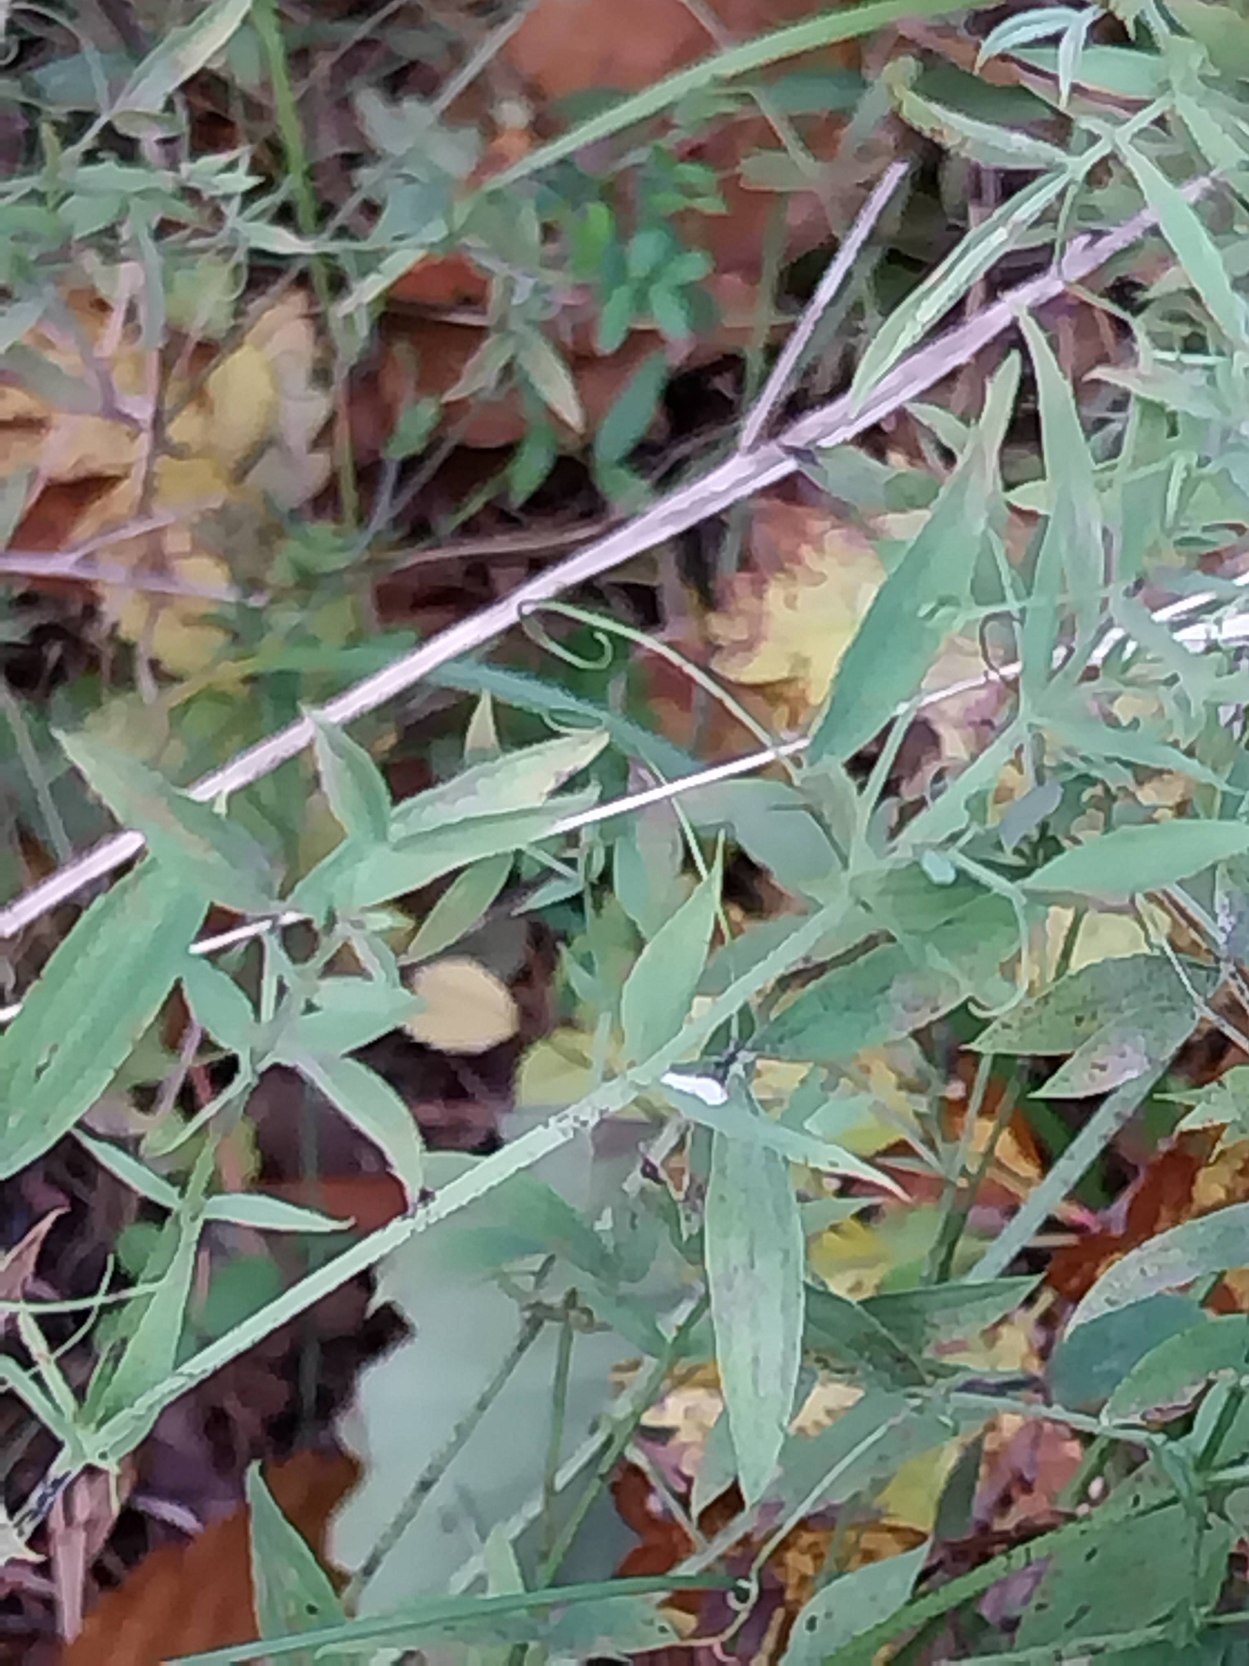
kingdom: Plantae
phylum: Tracheophyta
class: Magnoliopsida
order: Fabales
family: Fabaceae
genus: Lathyrus
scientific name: Lathyrus pratensis
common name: Gul fladbælg
